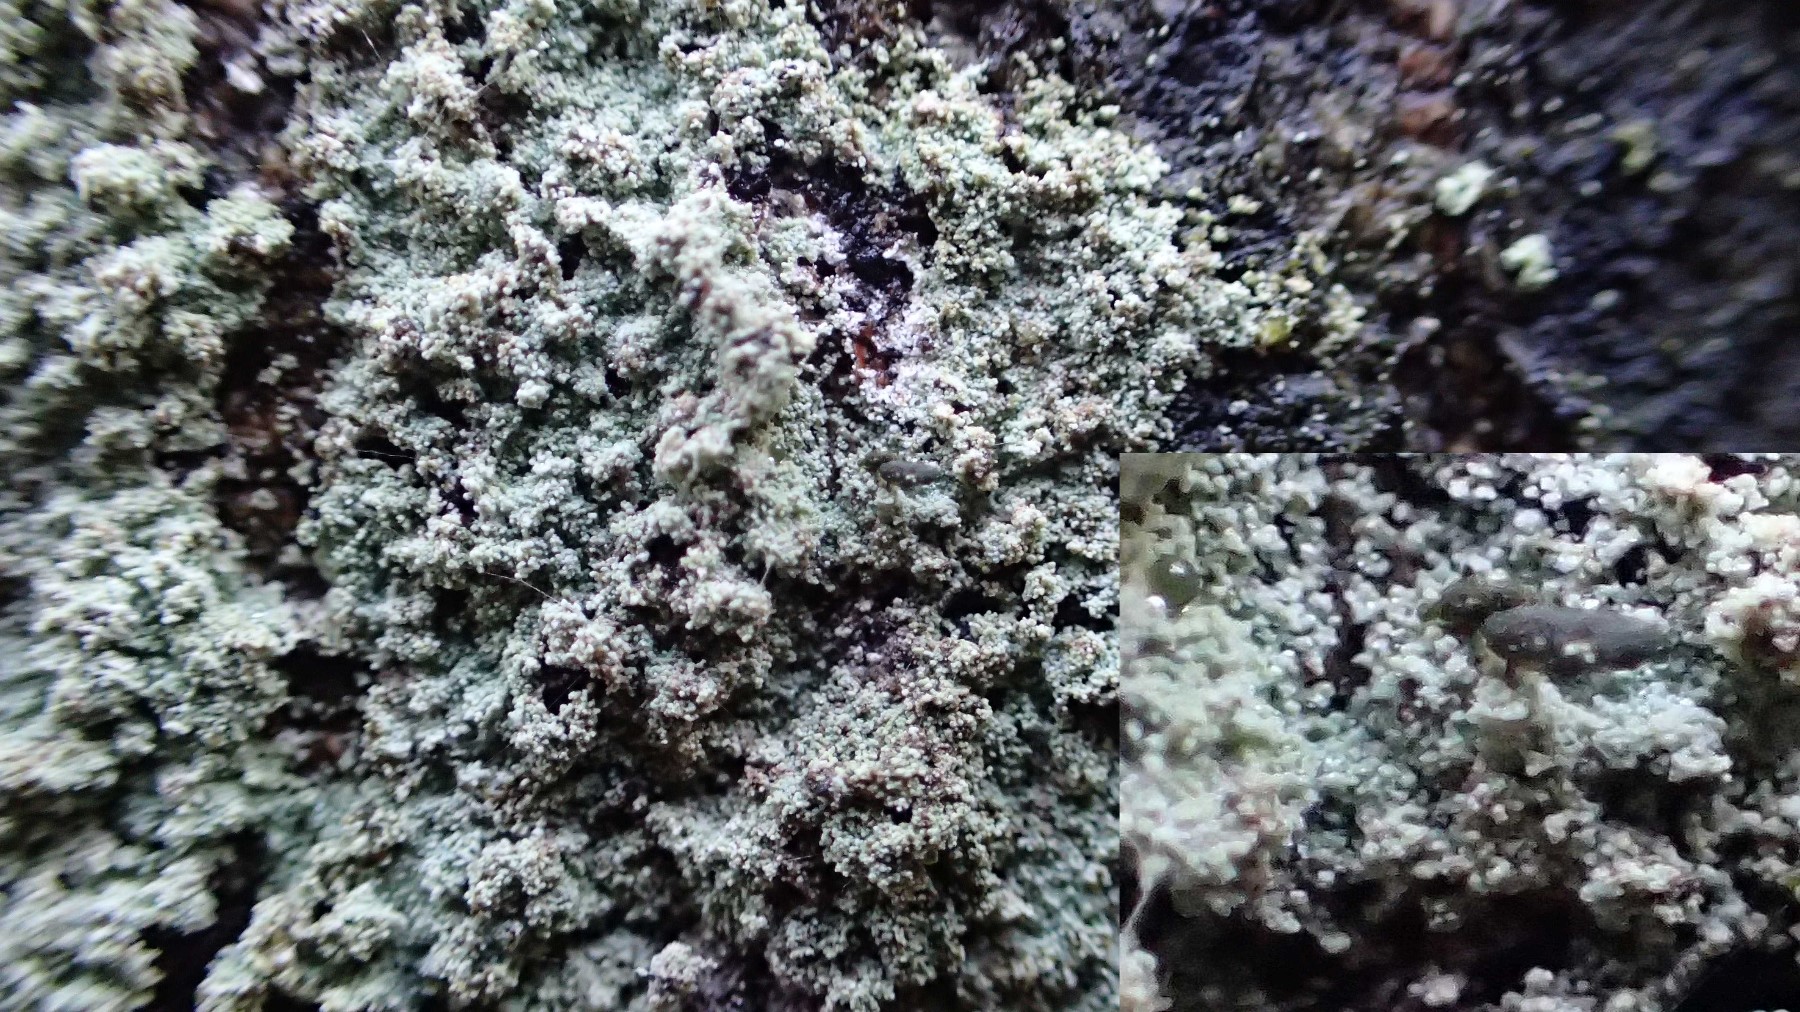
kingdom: Fungi
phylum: Ascomycota
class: Lecanoromycetes
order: Lecanorales
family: Stereocaulaceae
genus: Lepraria
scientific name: Lepraria
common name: støvlav
